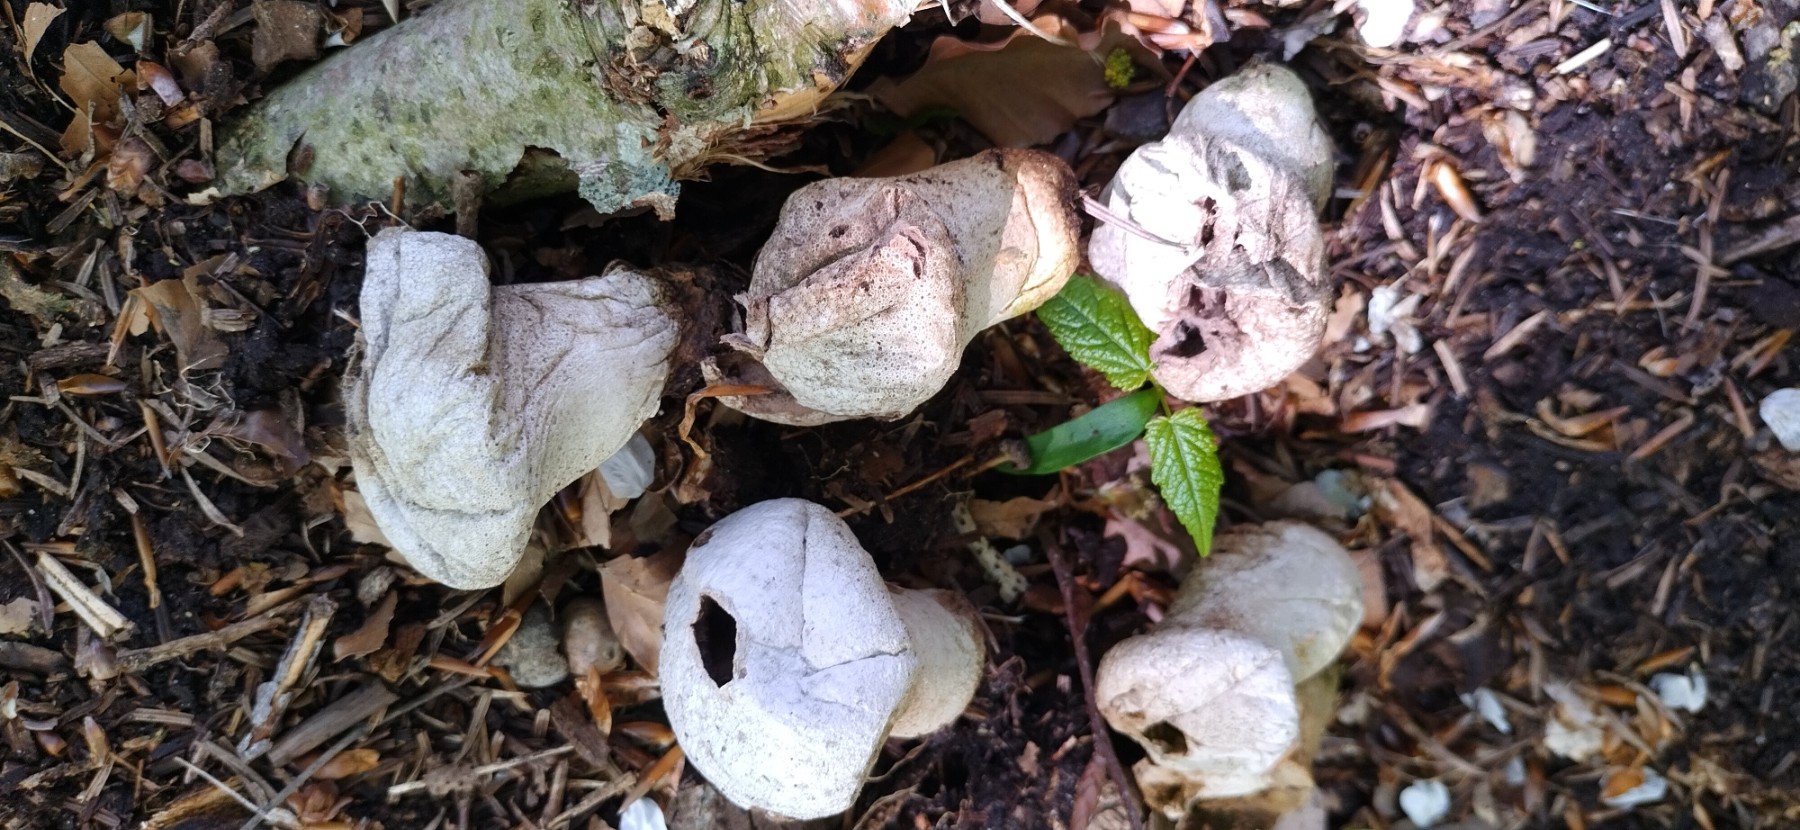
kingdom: Fungi
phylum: Basidiomycota
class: Agaricomycetes
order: Agaricales
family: Lycoperdaceae
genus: Lycoperdon
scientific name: Lycoperdon perlatum
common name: krystal-støvbold
